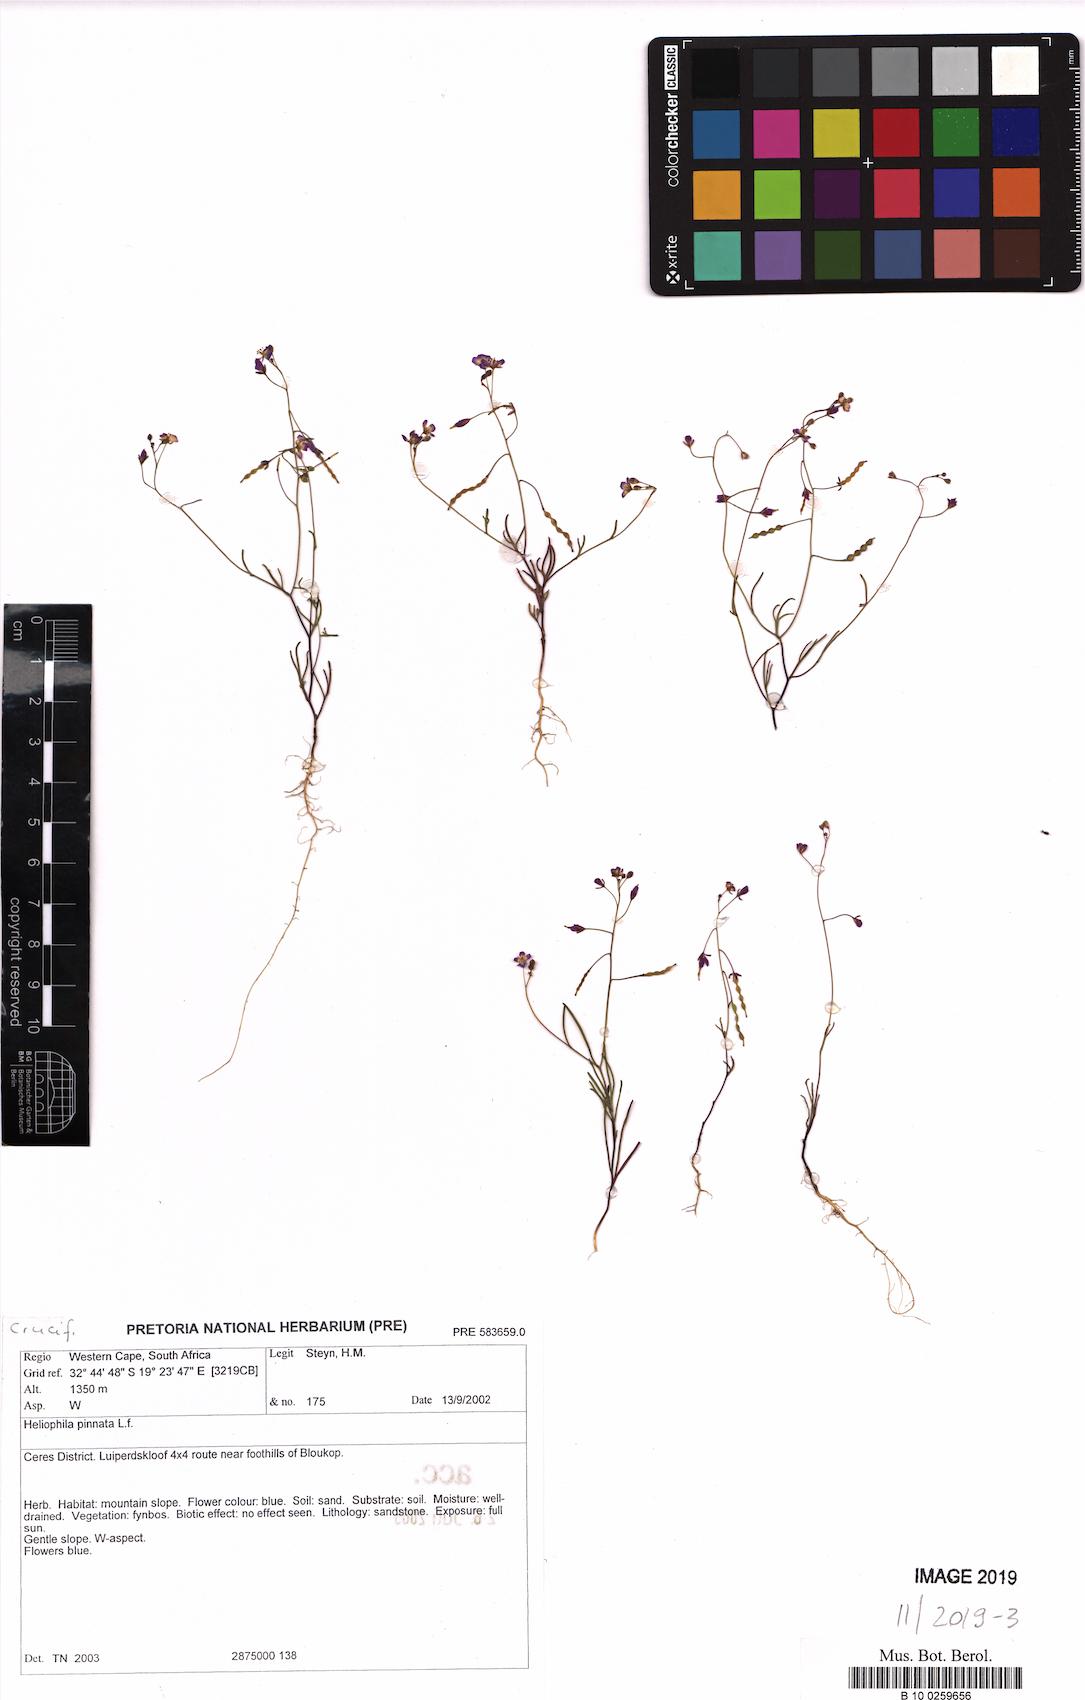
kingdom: Plantae
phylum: Tracheophyta
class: Magnoliopsida
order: Brassicales
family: Brassicaceae
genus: Heliophila
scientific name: Heliophila pinnata
